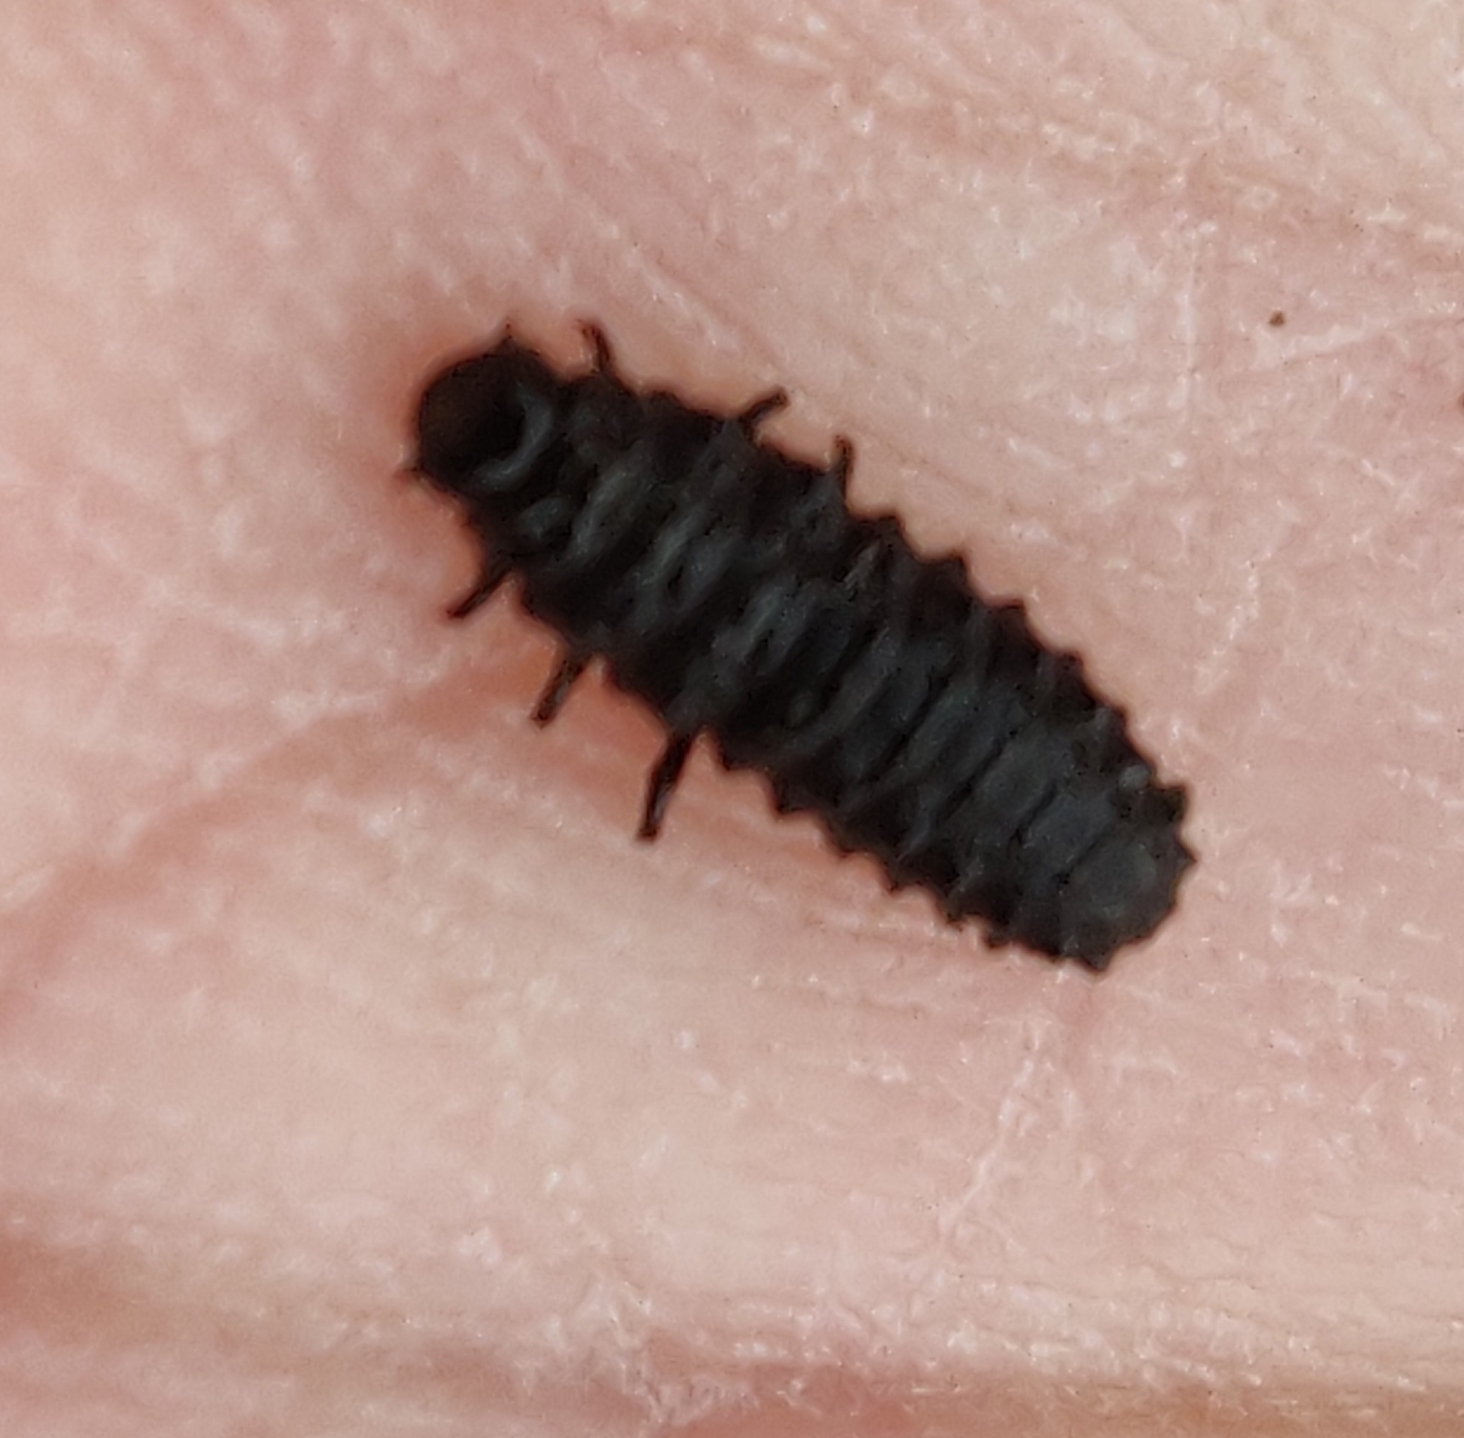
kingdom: Animalia
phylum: Arthropoda
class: Insecta
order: Coleoptera
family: Chrysomelidae
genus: Gastrophysa
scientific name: Gastrophysa viridula
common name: Skræppebladbille
